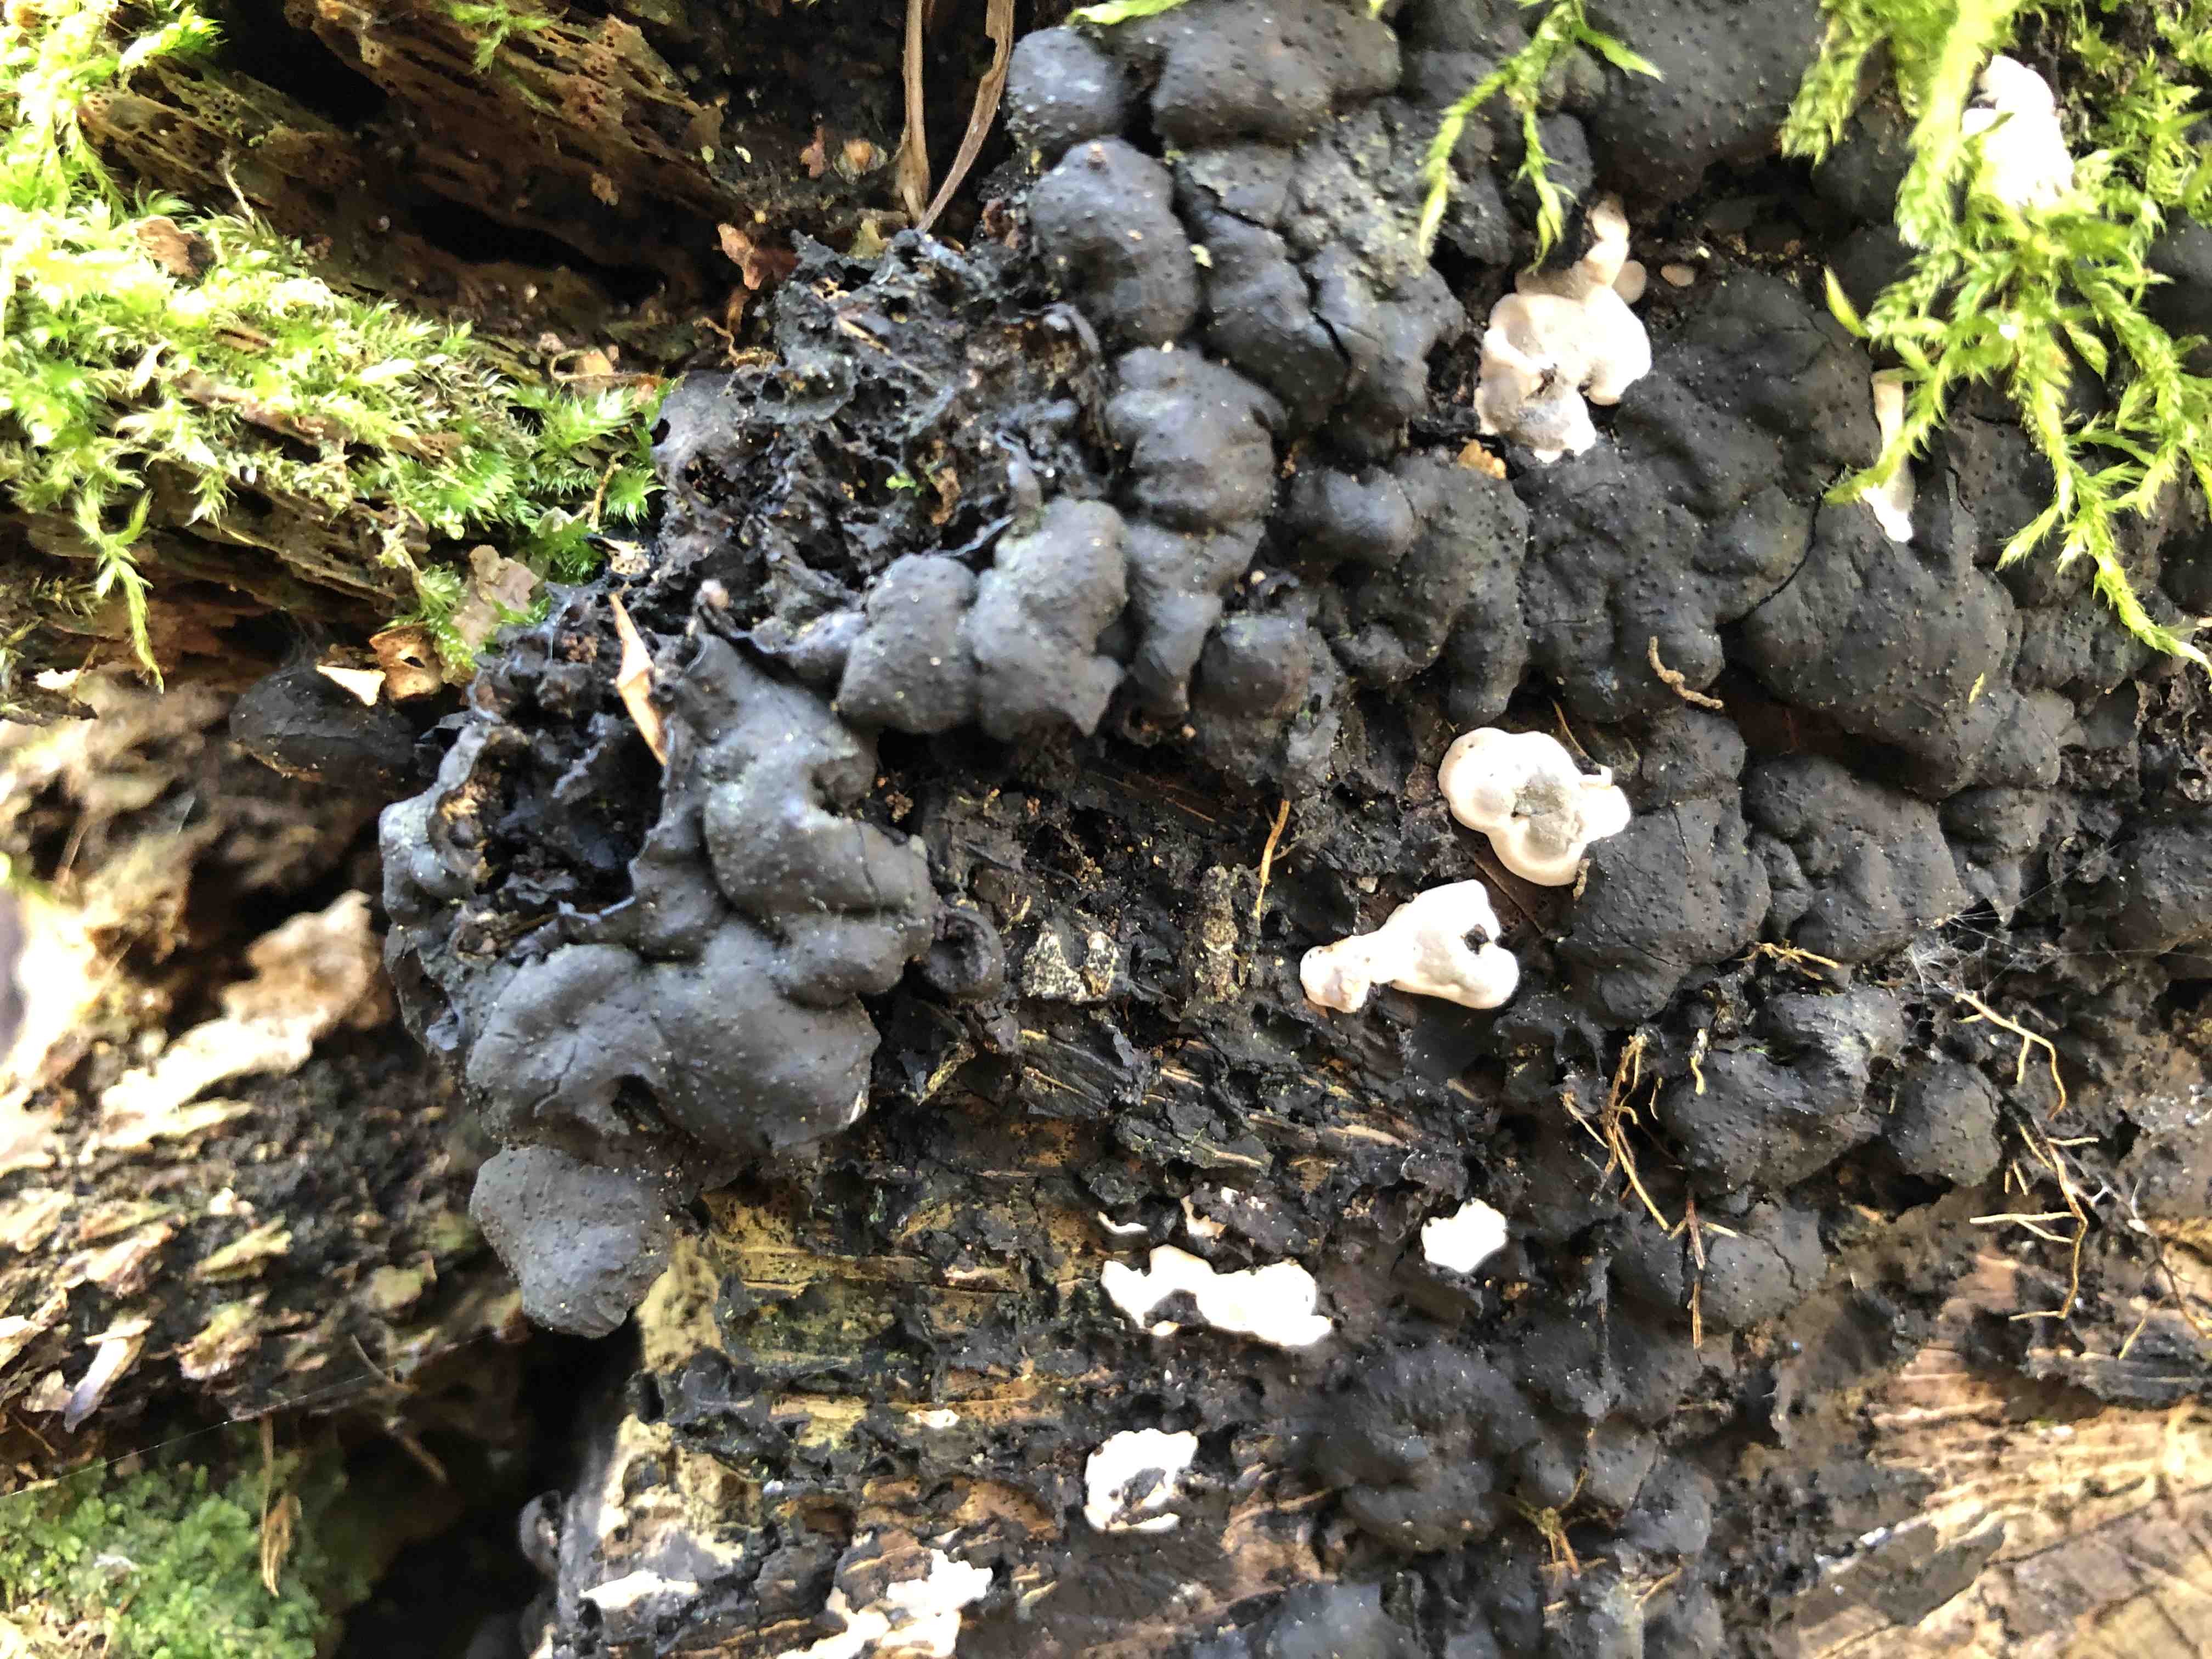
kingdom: Fungi
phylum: Ascomycota
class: Sordariomycetes
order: Xylariales
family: Xylariaceae
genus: Kretzschmaria
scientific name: Kretzschmaria deusta
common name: stor kulsvamp
